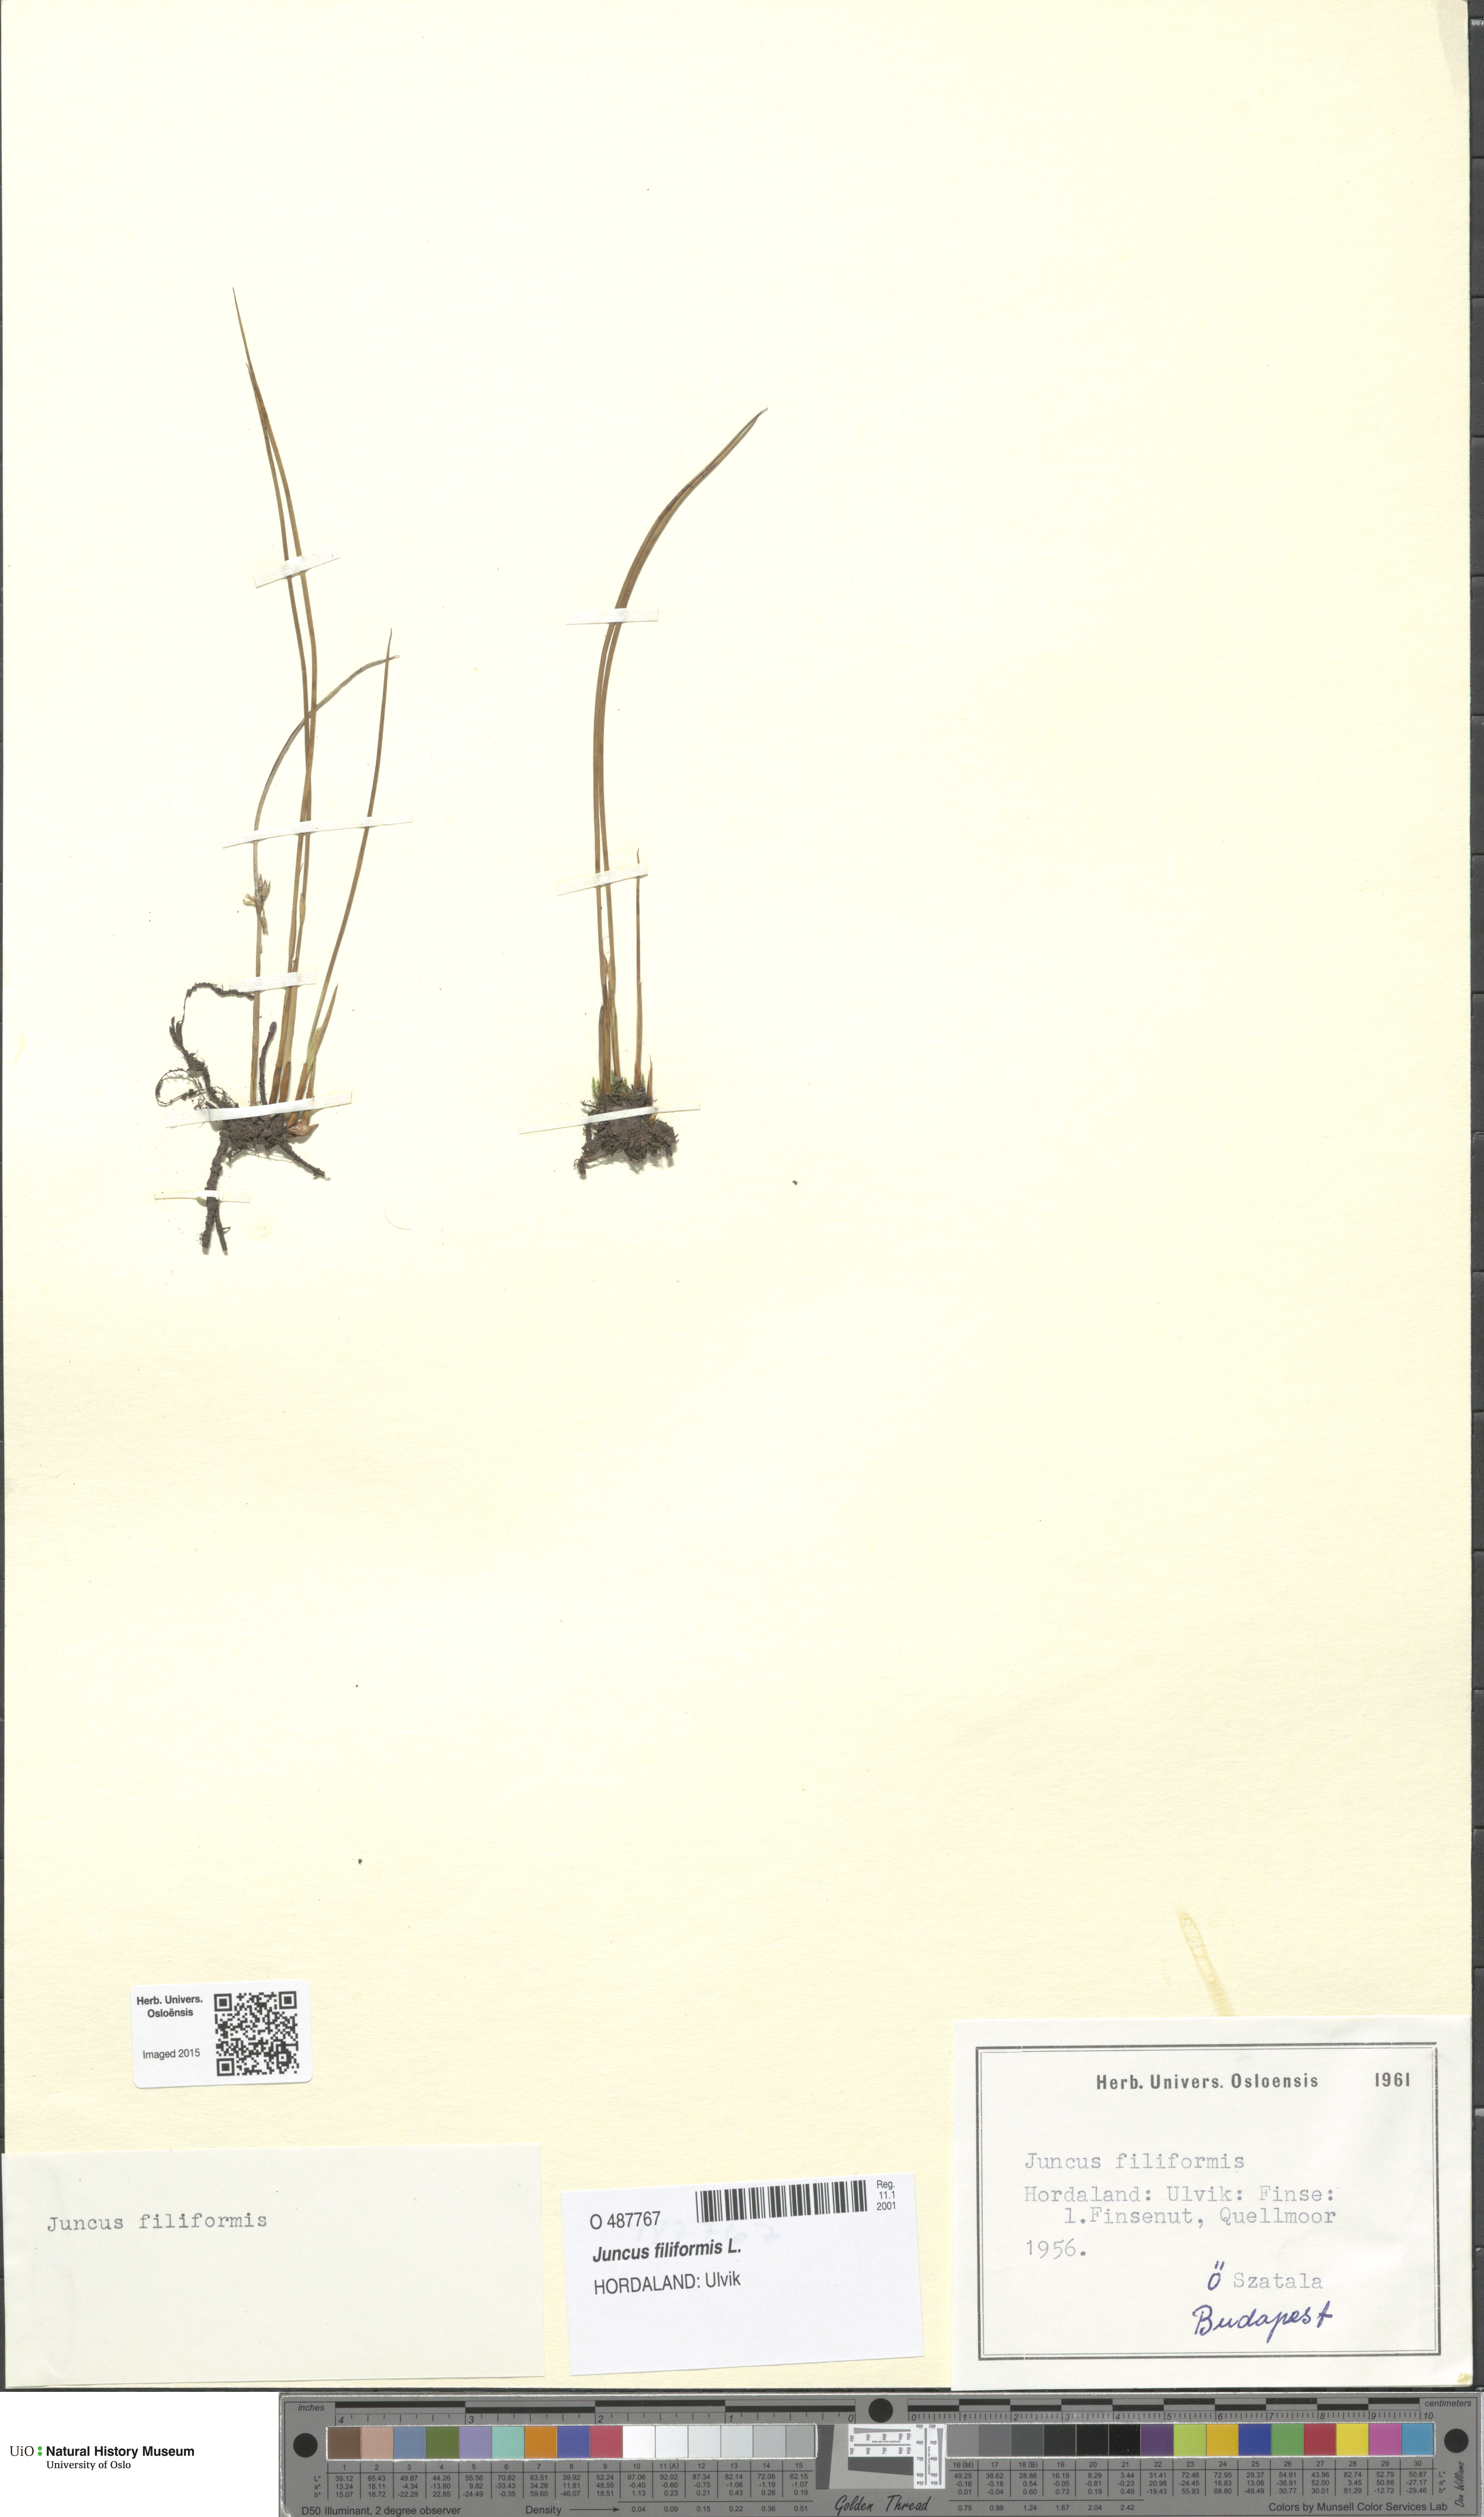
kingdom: Plantae
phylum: Tracheophyta
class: Liliopsida
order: Poales
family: Juncaceae
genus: Juncus
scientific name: Juncus filiformis
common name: Thread rush
